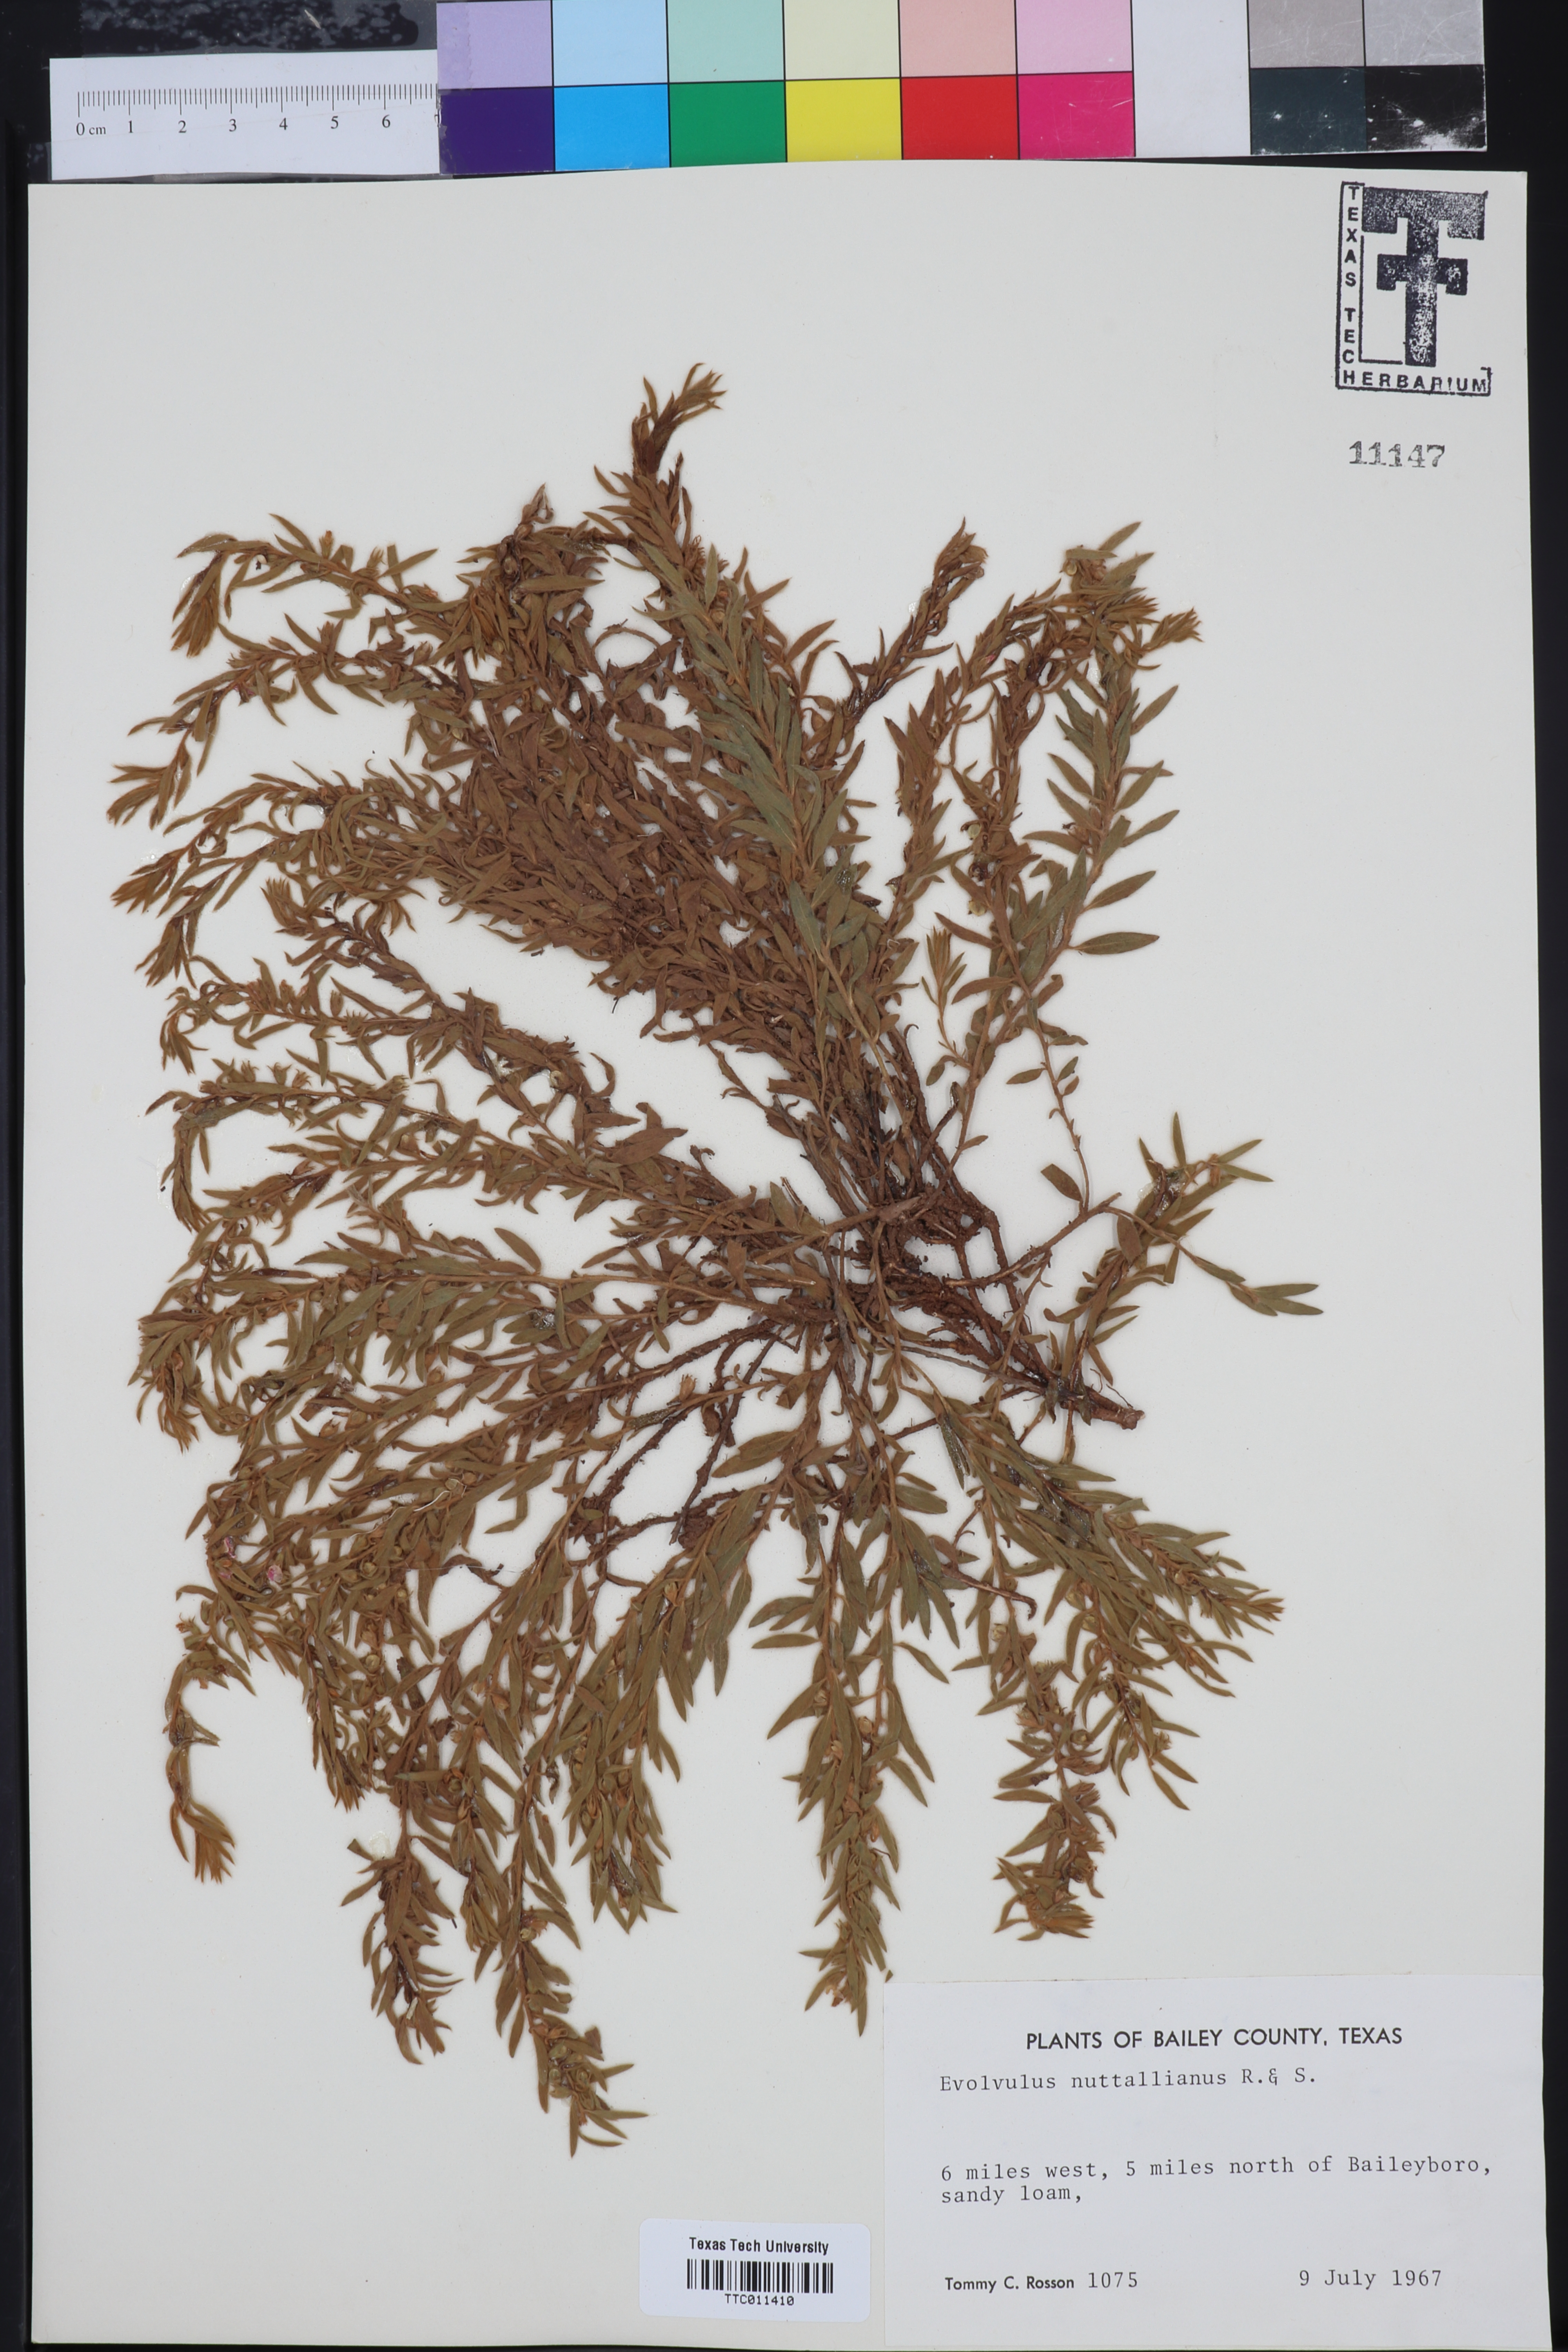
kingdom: Plantae
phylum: Tracheophyta
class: Magnoliopsida
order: Solanales
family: Convolvulaceae
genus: Evolvulus
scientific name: Evolvulus nuttallianus
